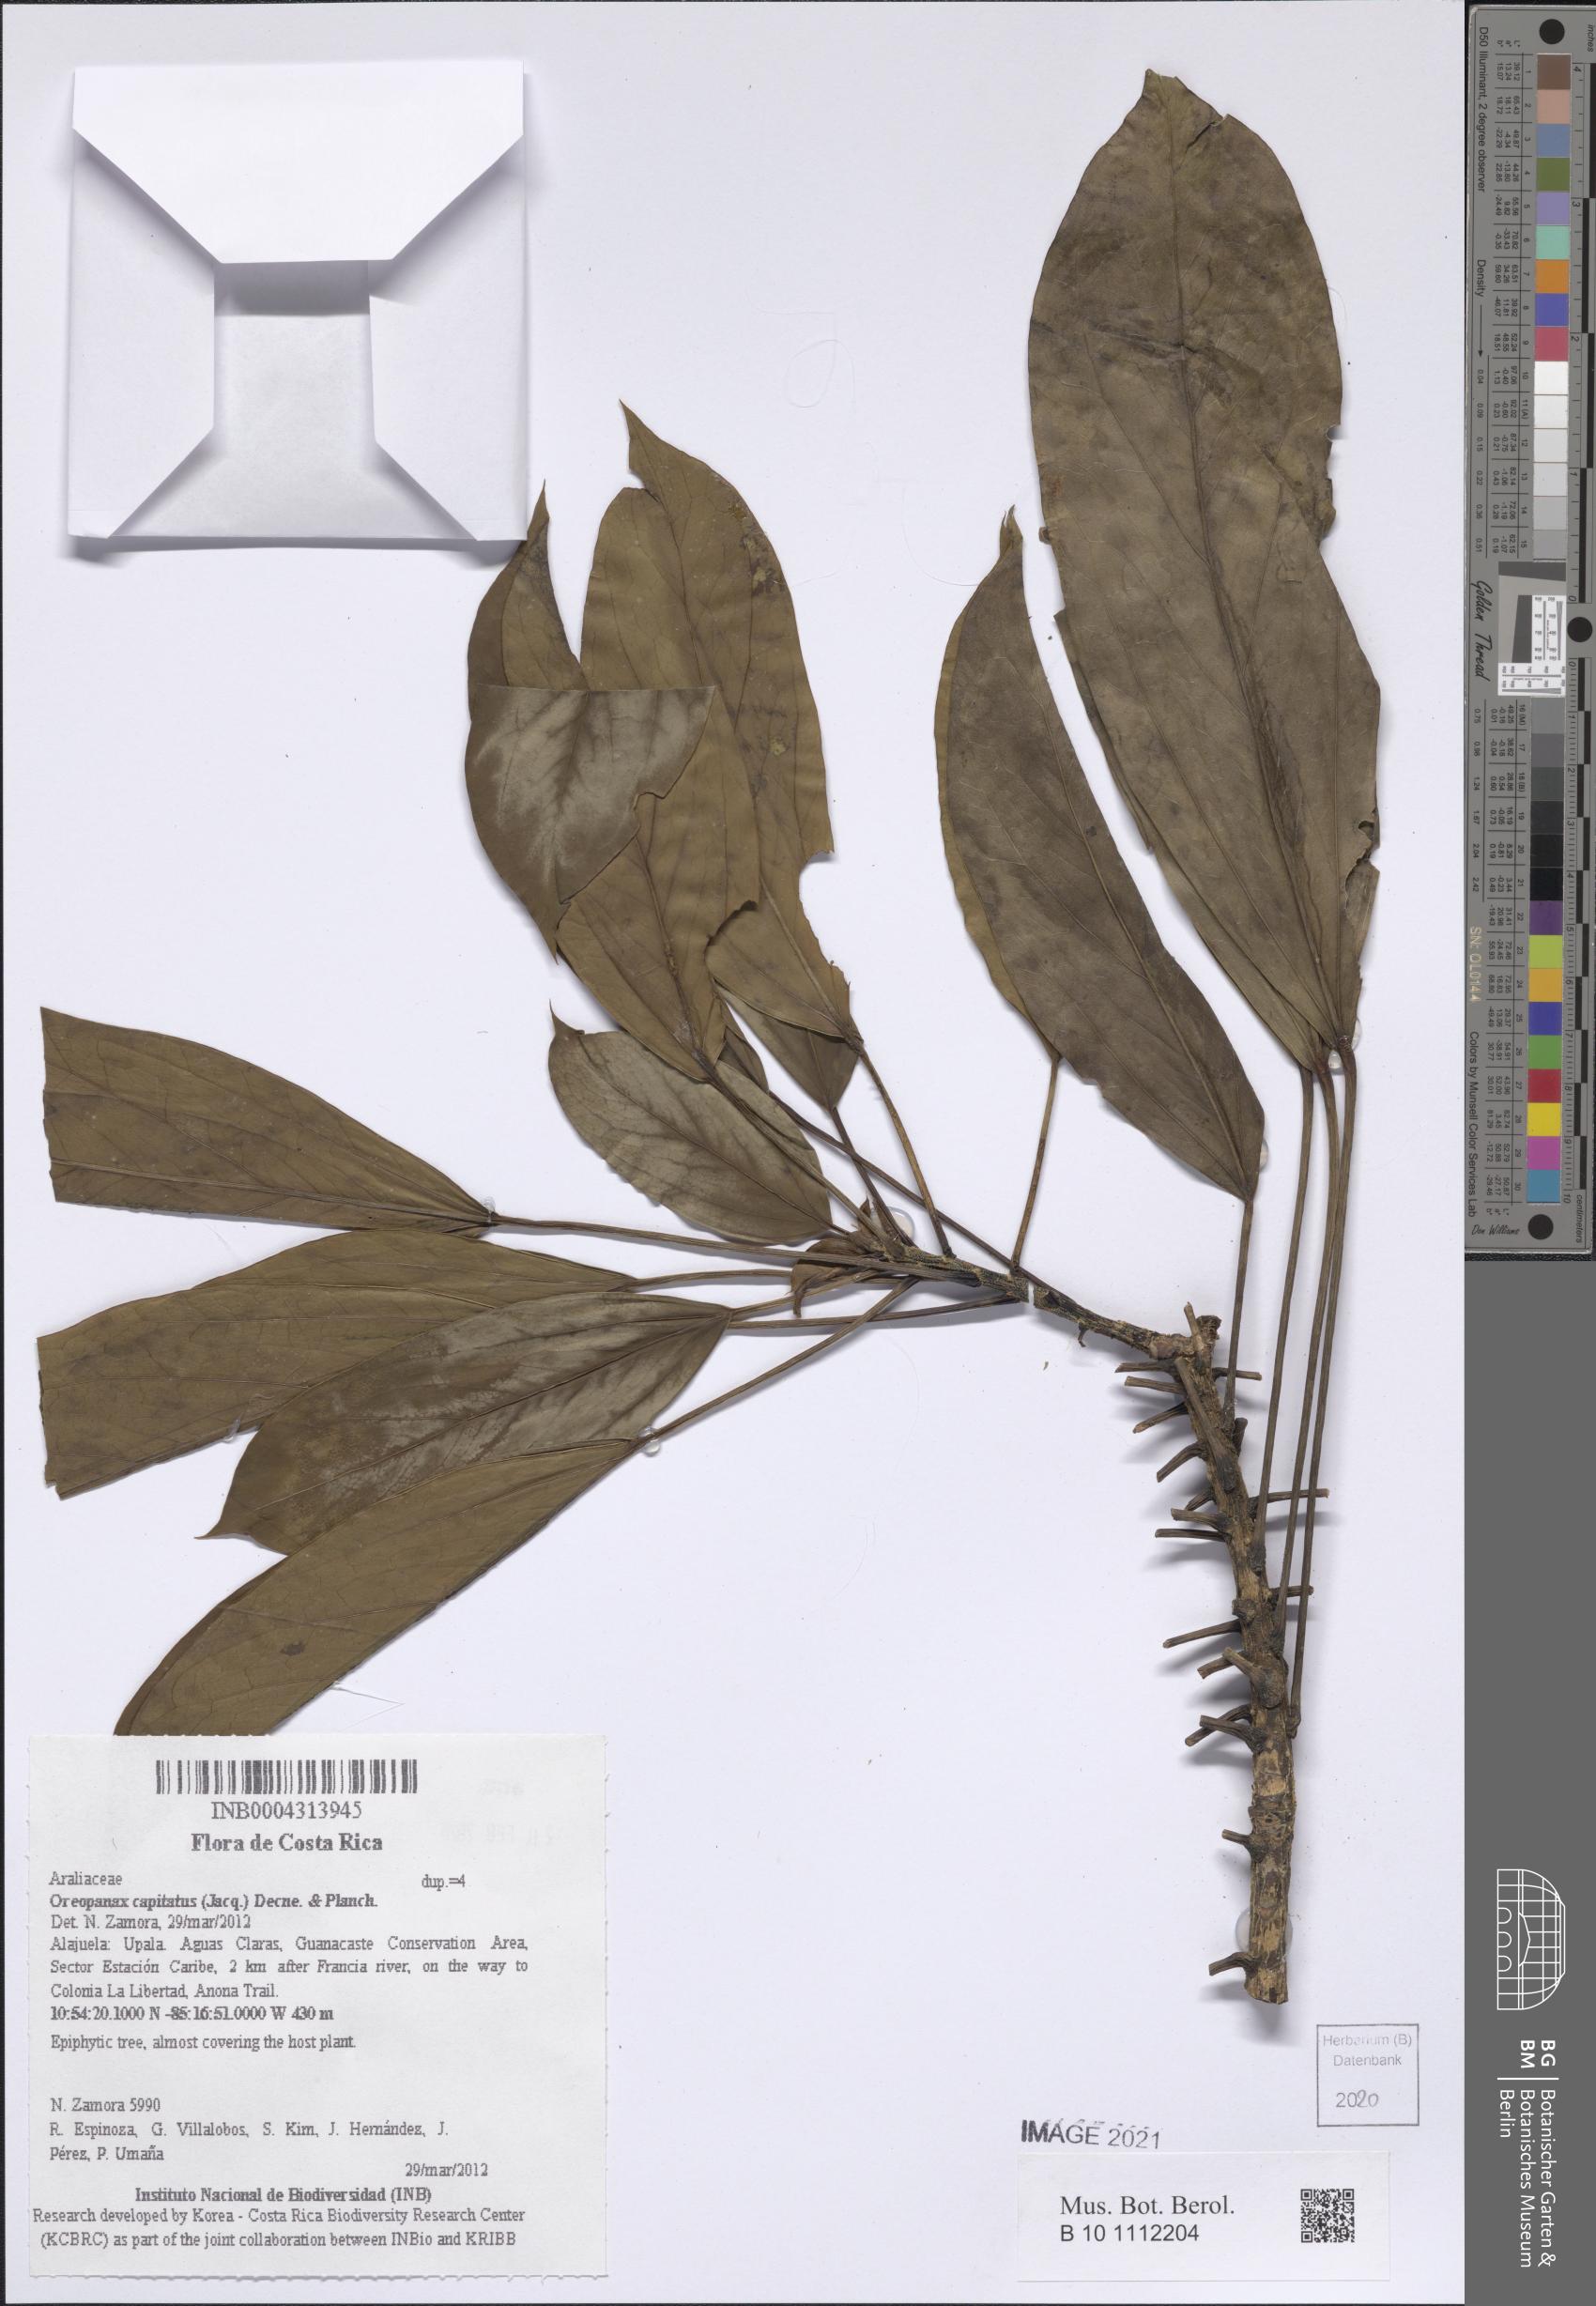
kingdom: Plantae
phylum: Tracheophyta
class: Magnoliopsida
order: Apiales
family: Araliaceae
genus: Oreopanax
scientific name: Oreopanax capitatus
